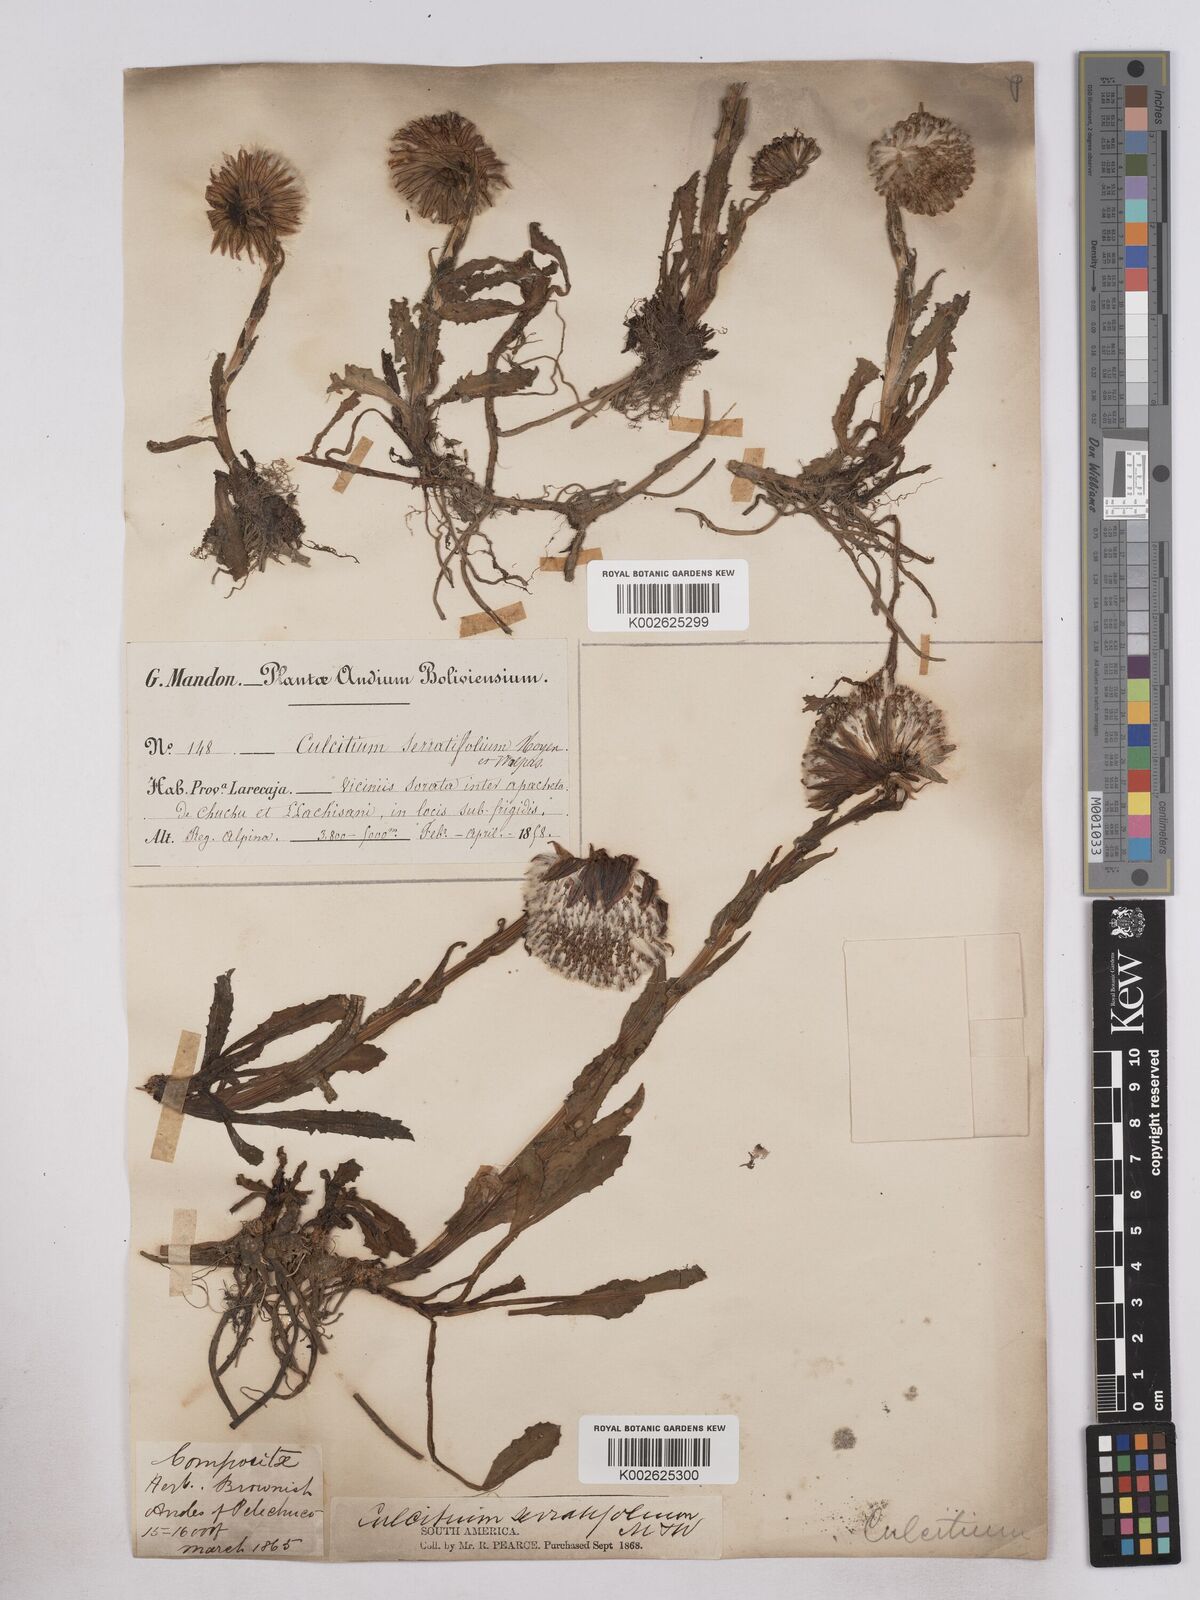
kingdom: Plantae
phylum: Tracheophyta
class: Magnoliopsida
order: Asterales
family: Asteraceae
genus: Senecio
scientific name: Senecio serratifolius
